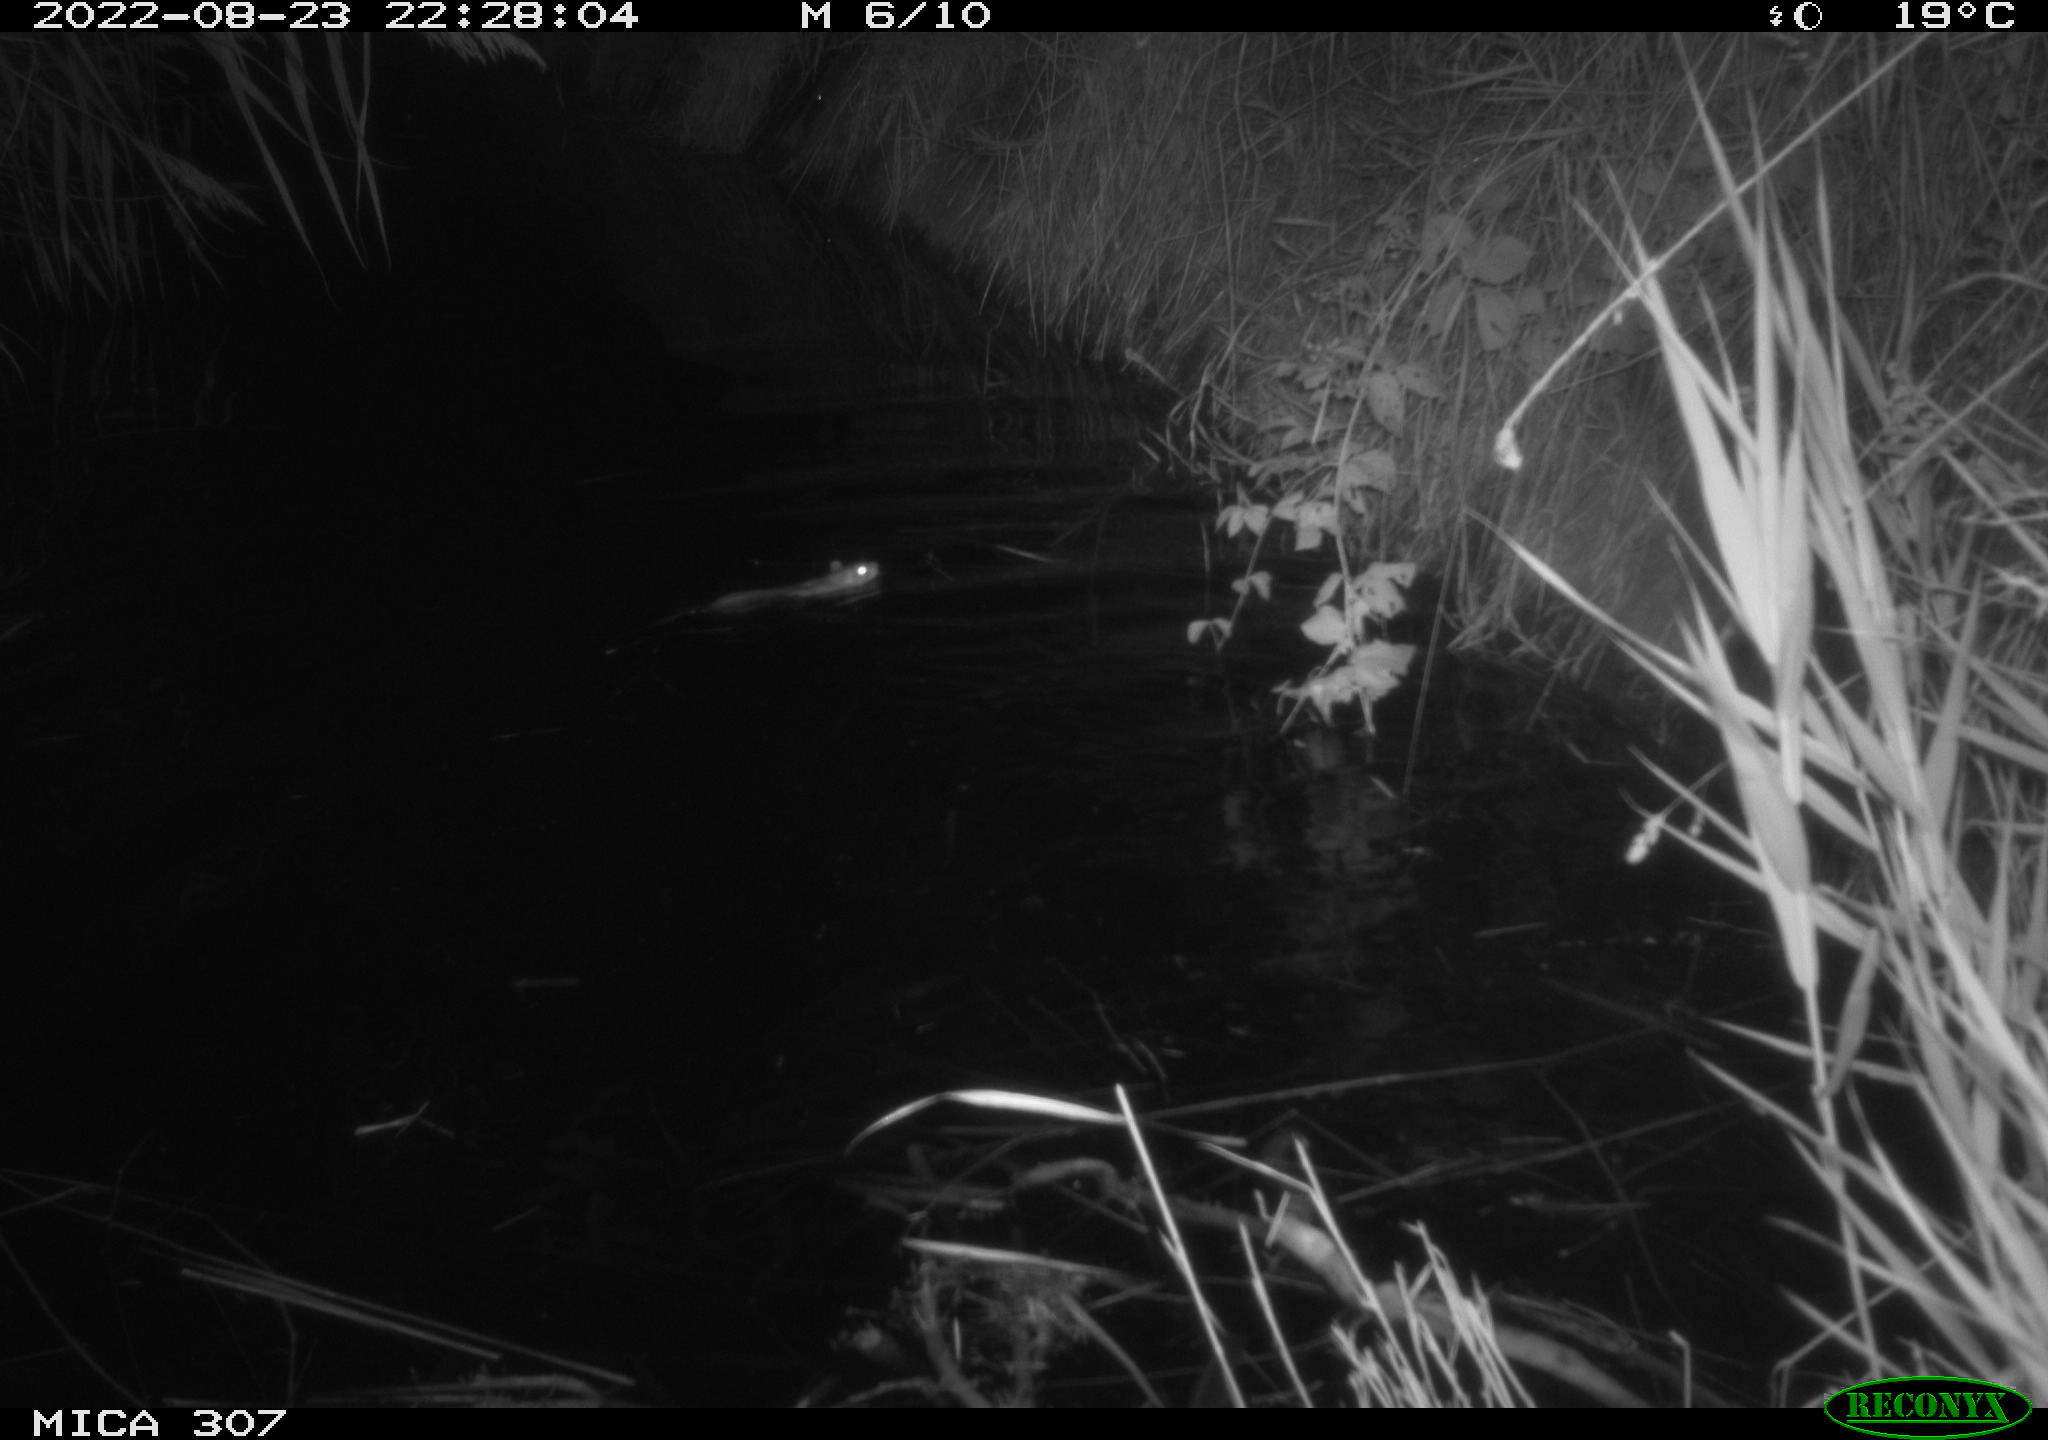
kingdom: Animalia
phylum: Chordata
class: Mammalia
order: Rodentia
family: Muridae
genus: Rattus
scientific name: Rattus norvegicus
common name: Brown rat
